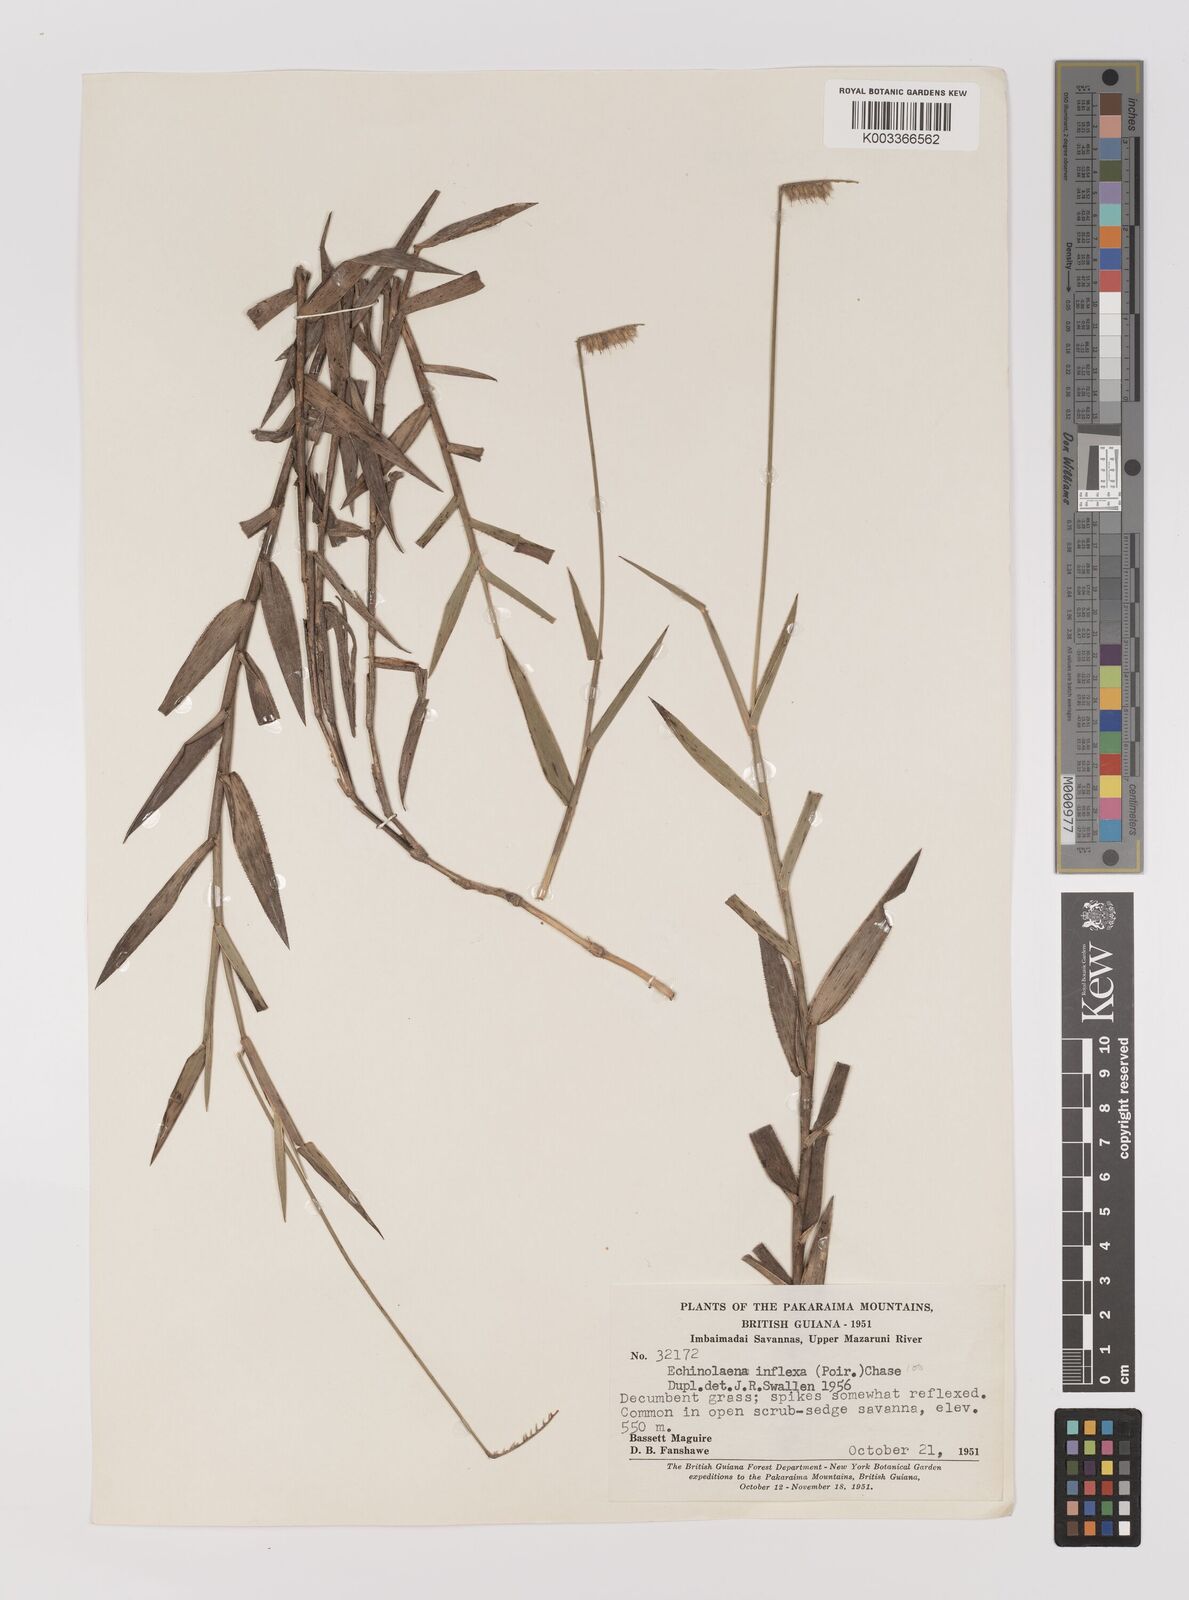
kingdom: Plantae
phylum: Tracheophyta
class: Liliopsida
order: Poales
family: Poaceae
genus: Echinolaena
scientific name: Echinolaena inflexa
